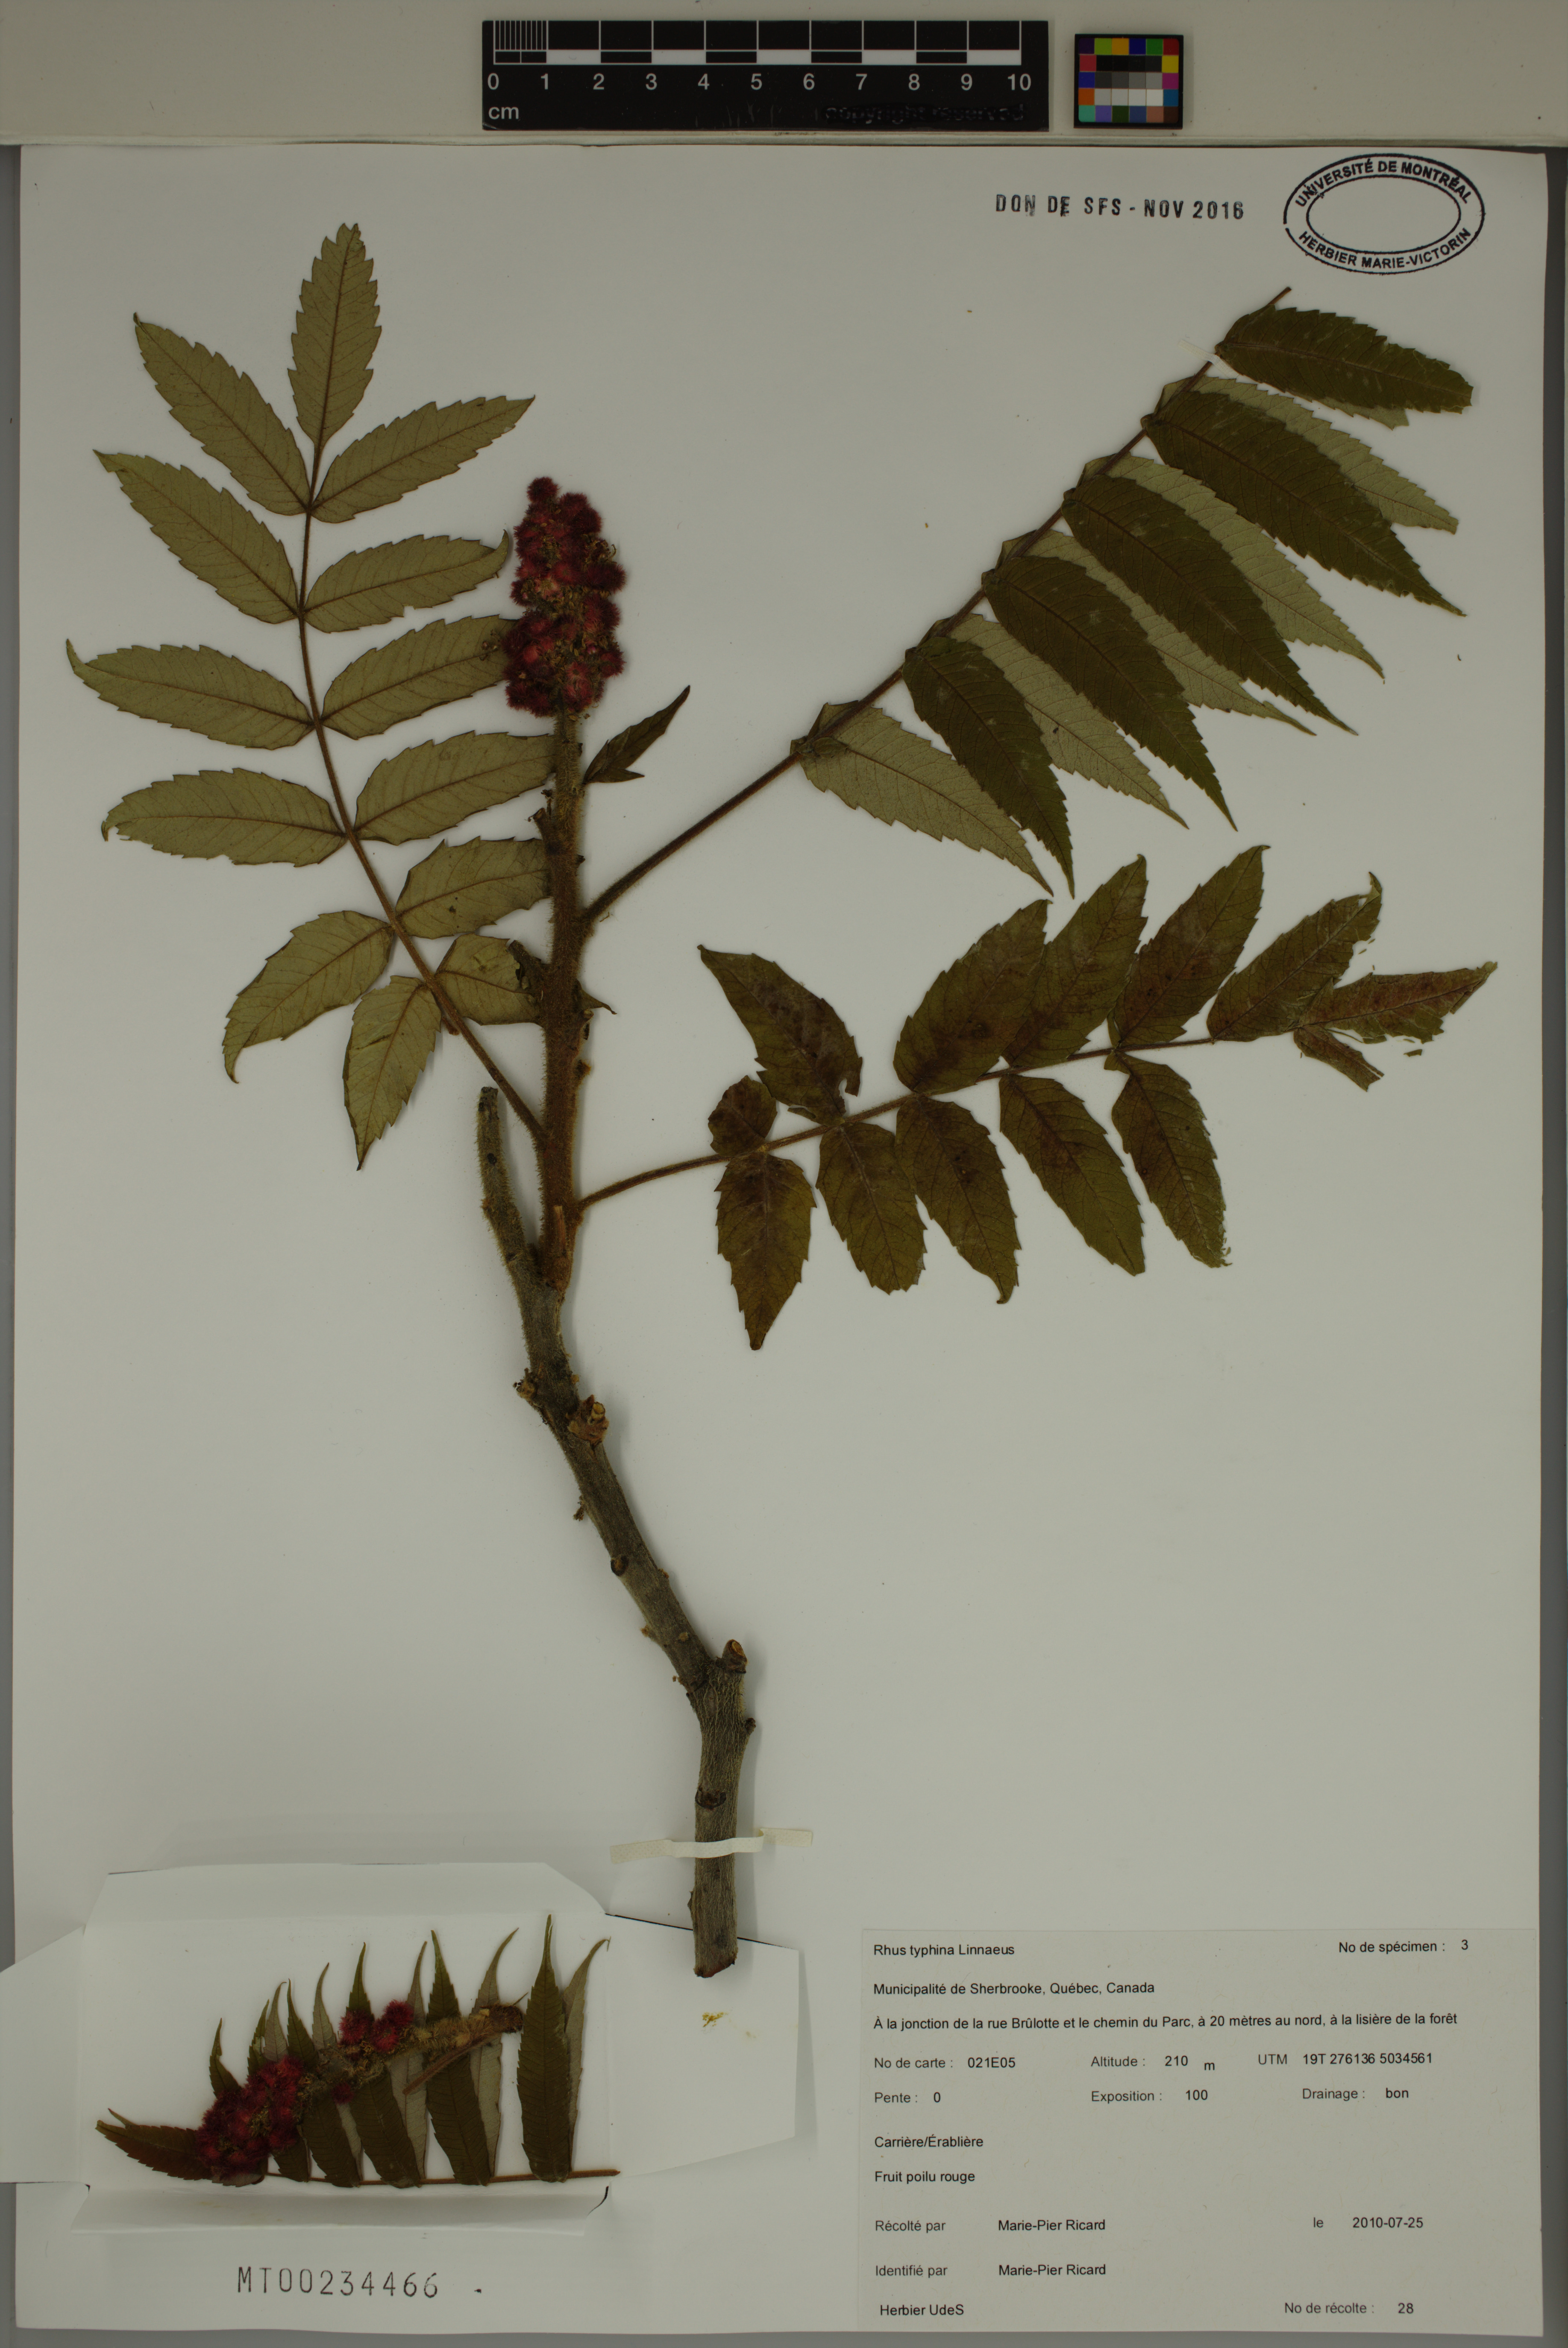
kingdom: Plantae
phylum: Tracheophyta
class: Magnoliopsida
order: Sapindales
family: Anacardiaceae
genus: Rhus
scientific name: Rhus typhina
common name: Staghorn sumac
